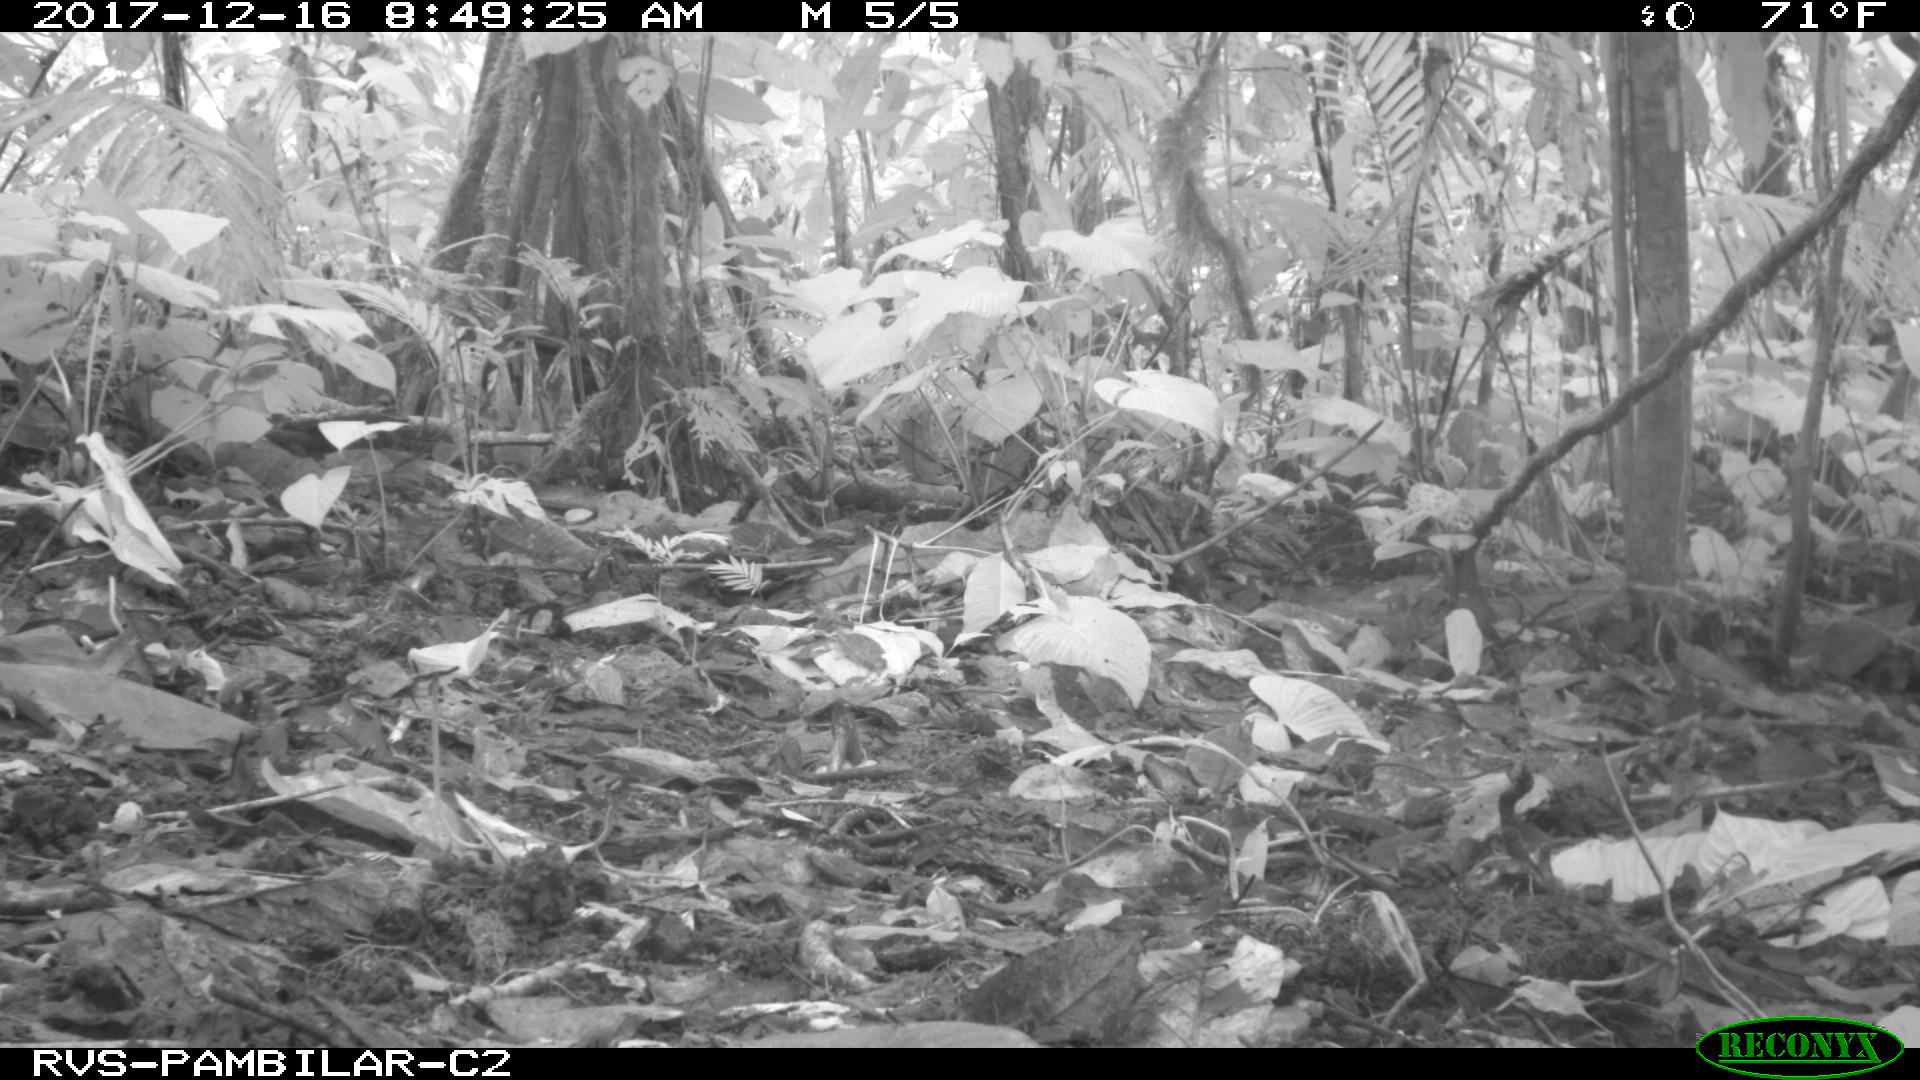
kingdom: Animalia
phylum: Chordata
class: Mammalia
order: Carnivora
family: Felidae
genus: Leopardus
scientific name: Leopardus pardalis
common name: Ocelot
